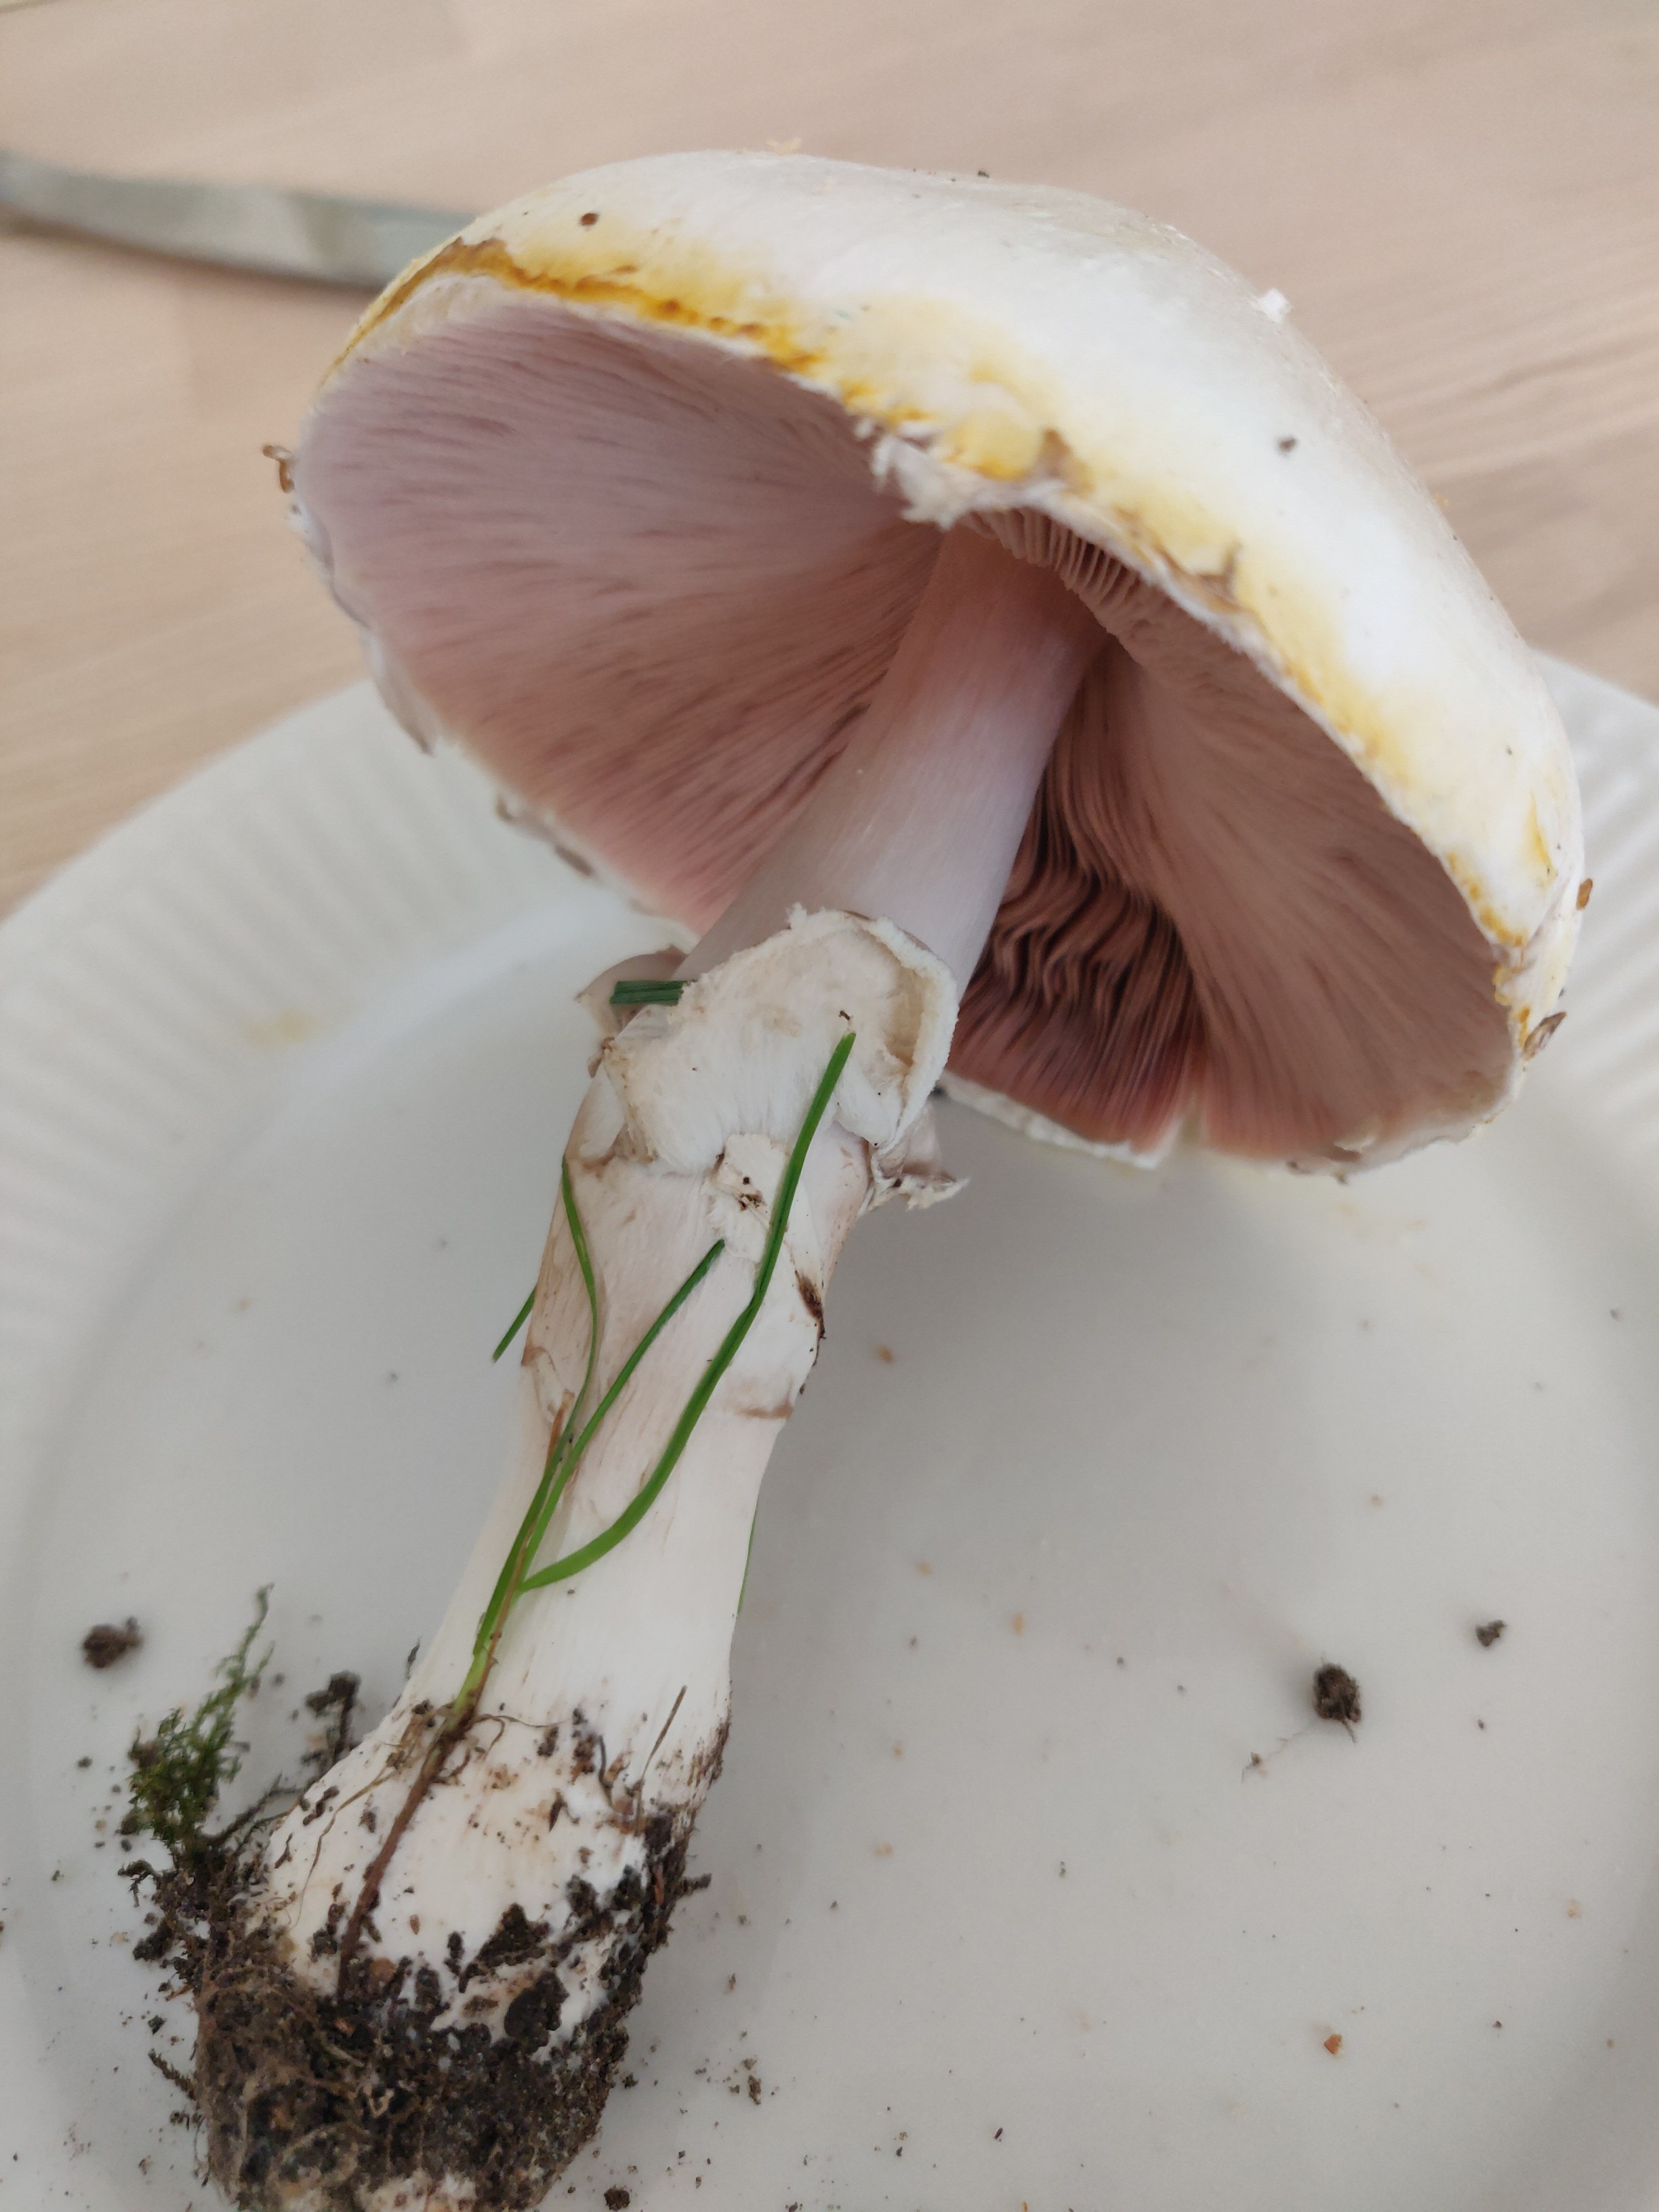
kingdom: Fungi
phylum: Basidiomycota
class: Agaricomycetes
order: Agaricales
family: Agaricaceae
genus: Agaricus
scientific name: Agaricus xanthodermus
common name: karbol-champignon
